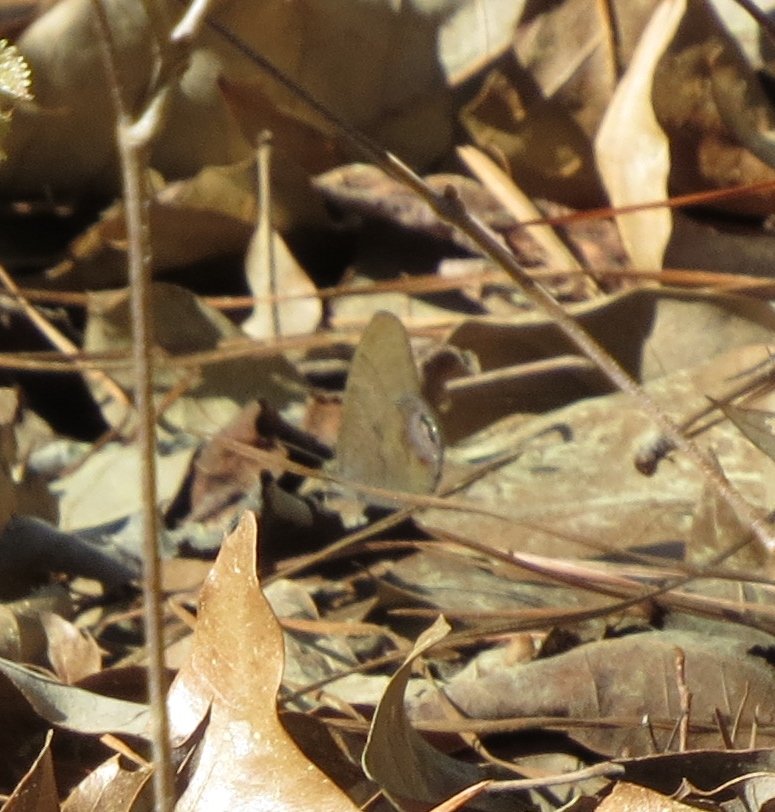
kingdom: Animalia
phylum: Arthropoda
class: Insecta
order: Lepidoptera
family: Nymphalidae
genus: Euptychia
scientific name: Euptychia cornelius
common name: Gemmed Satyr
